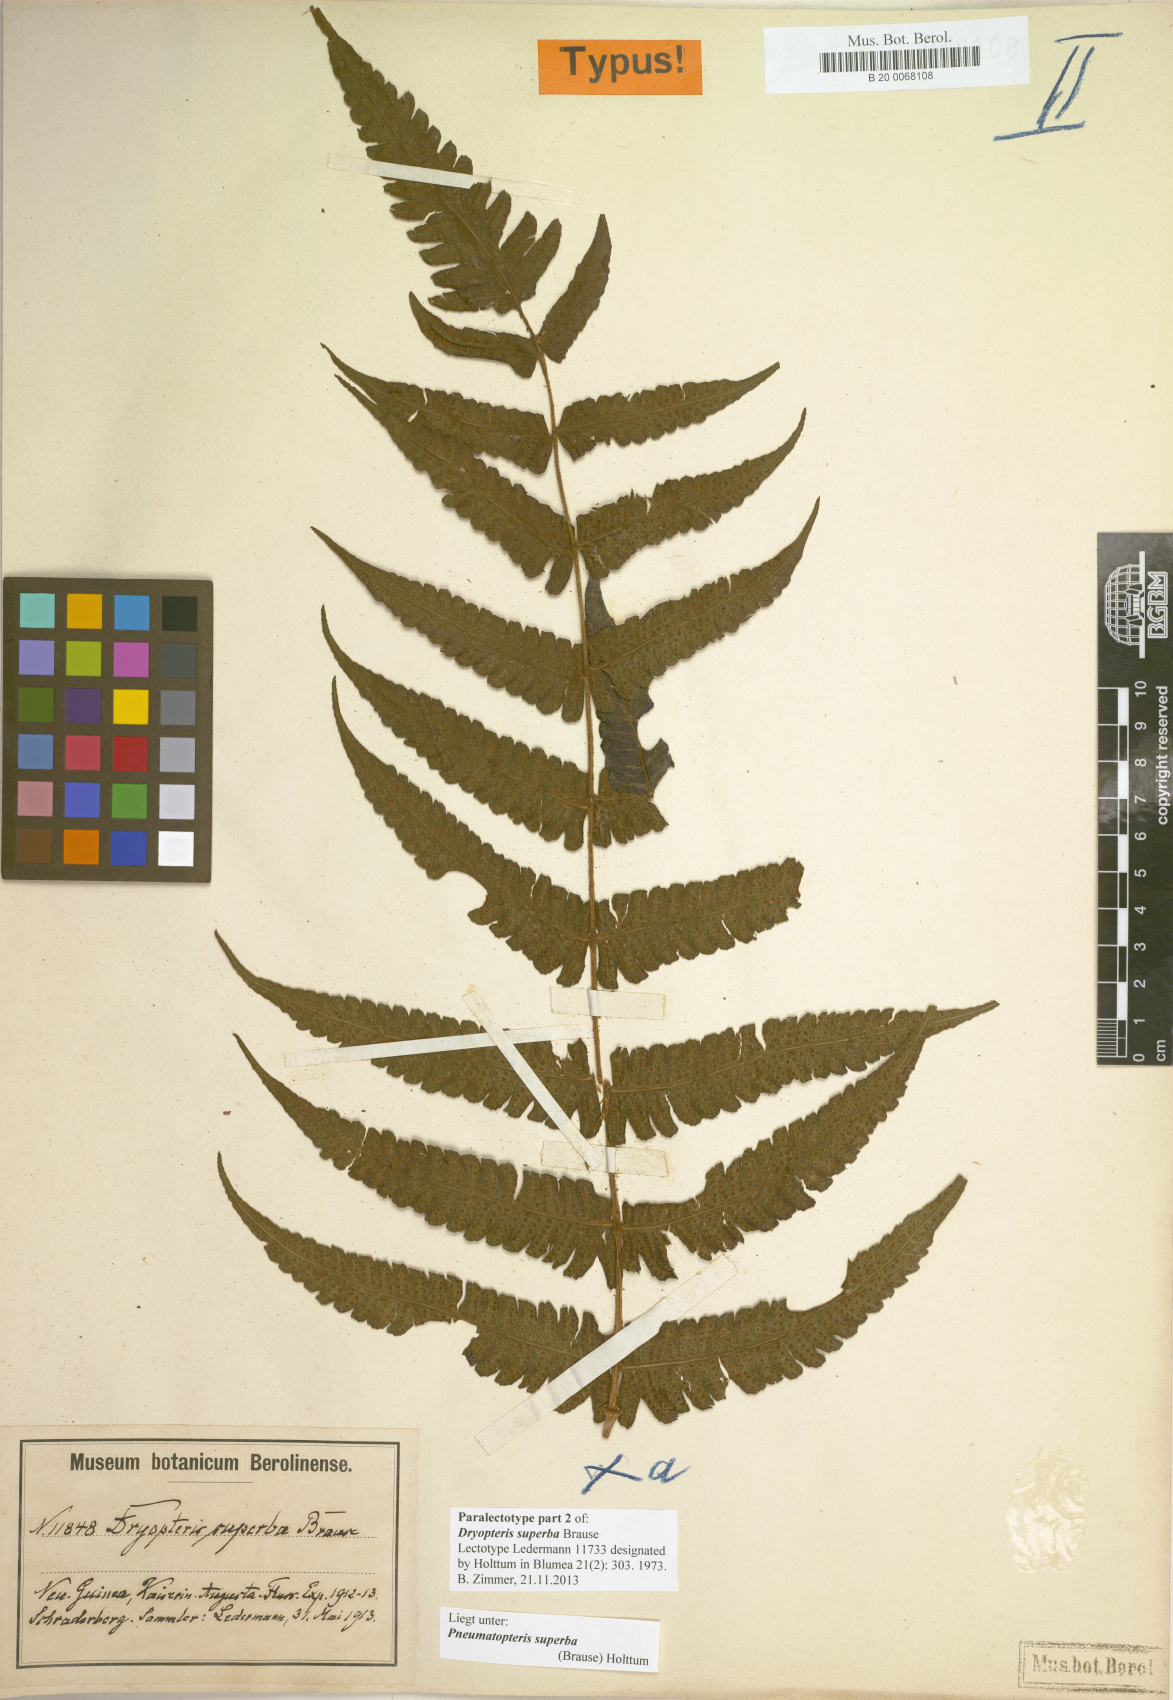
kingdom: Plantae
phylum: Tracheophyta
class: Polypodiopsida
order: Polypodiales
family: Thelypteridaceae
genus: Sphaerostephanos
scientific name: Sphaerostephanos superbus
